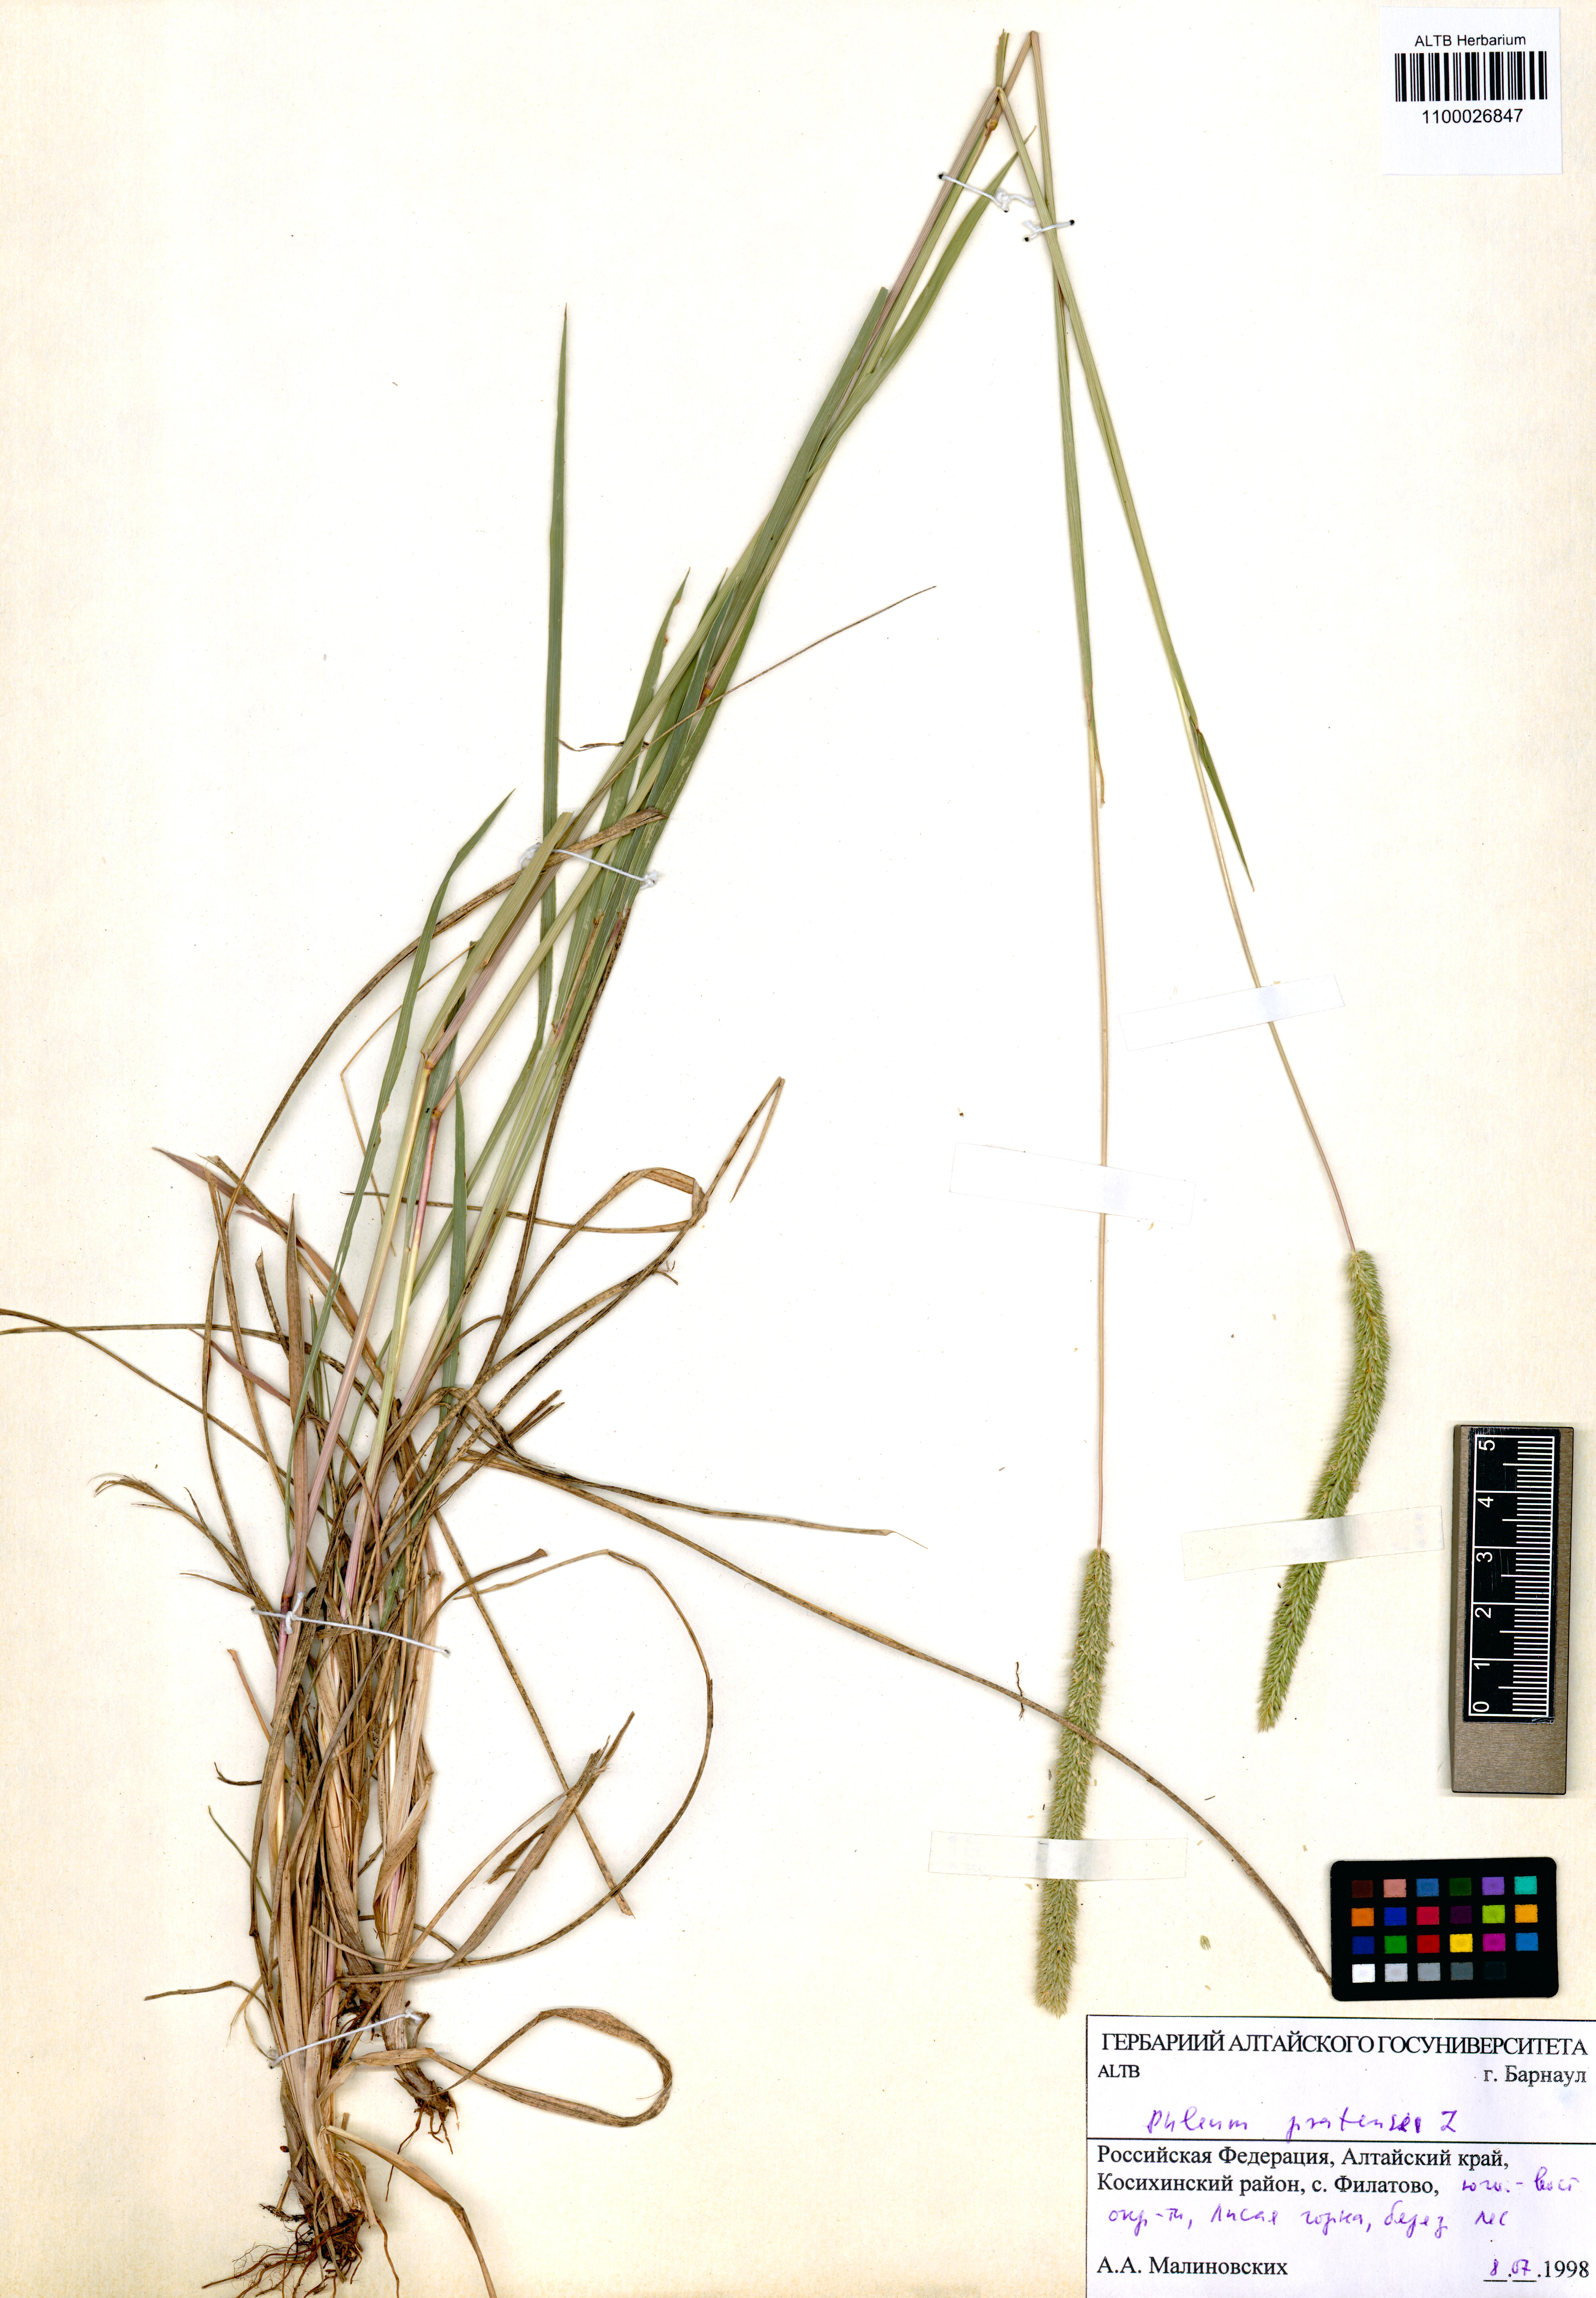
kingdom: Plantae
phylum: Tracheophyta
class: Liliopsida
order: Poales
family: Poaceae
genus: Phleum
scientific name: Phleum phleoides
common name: Purple-stem cat's-tail
